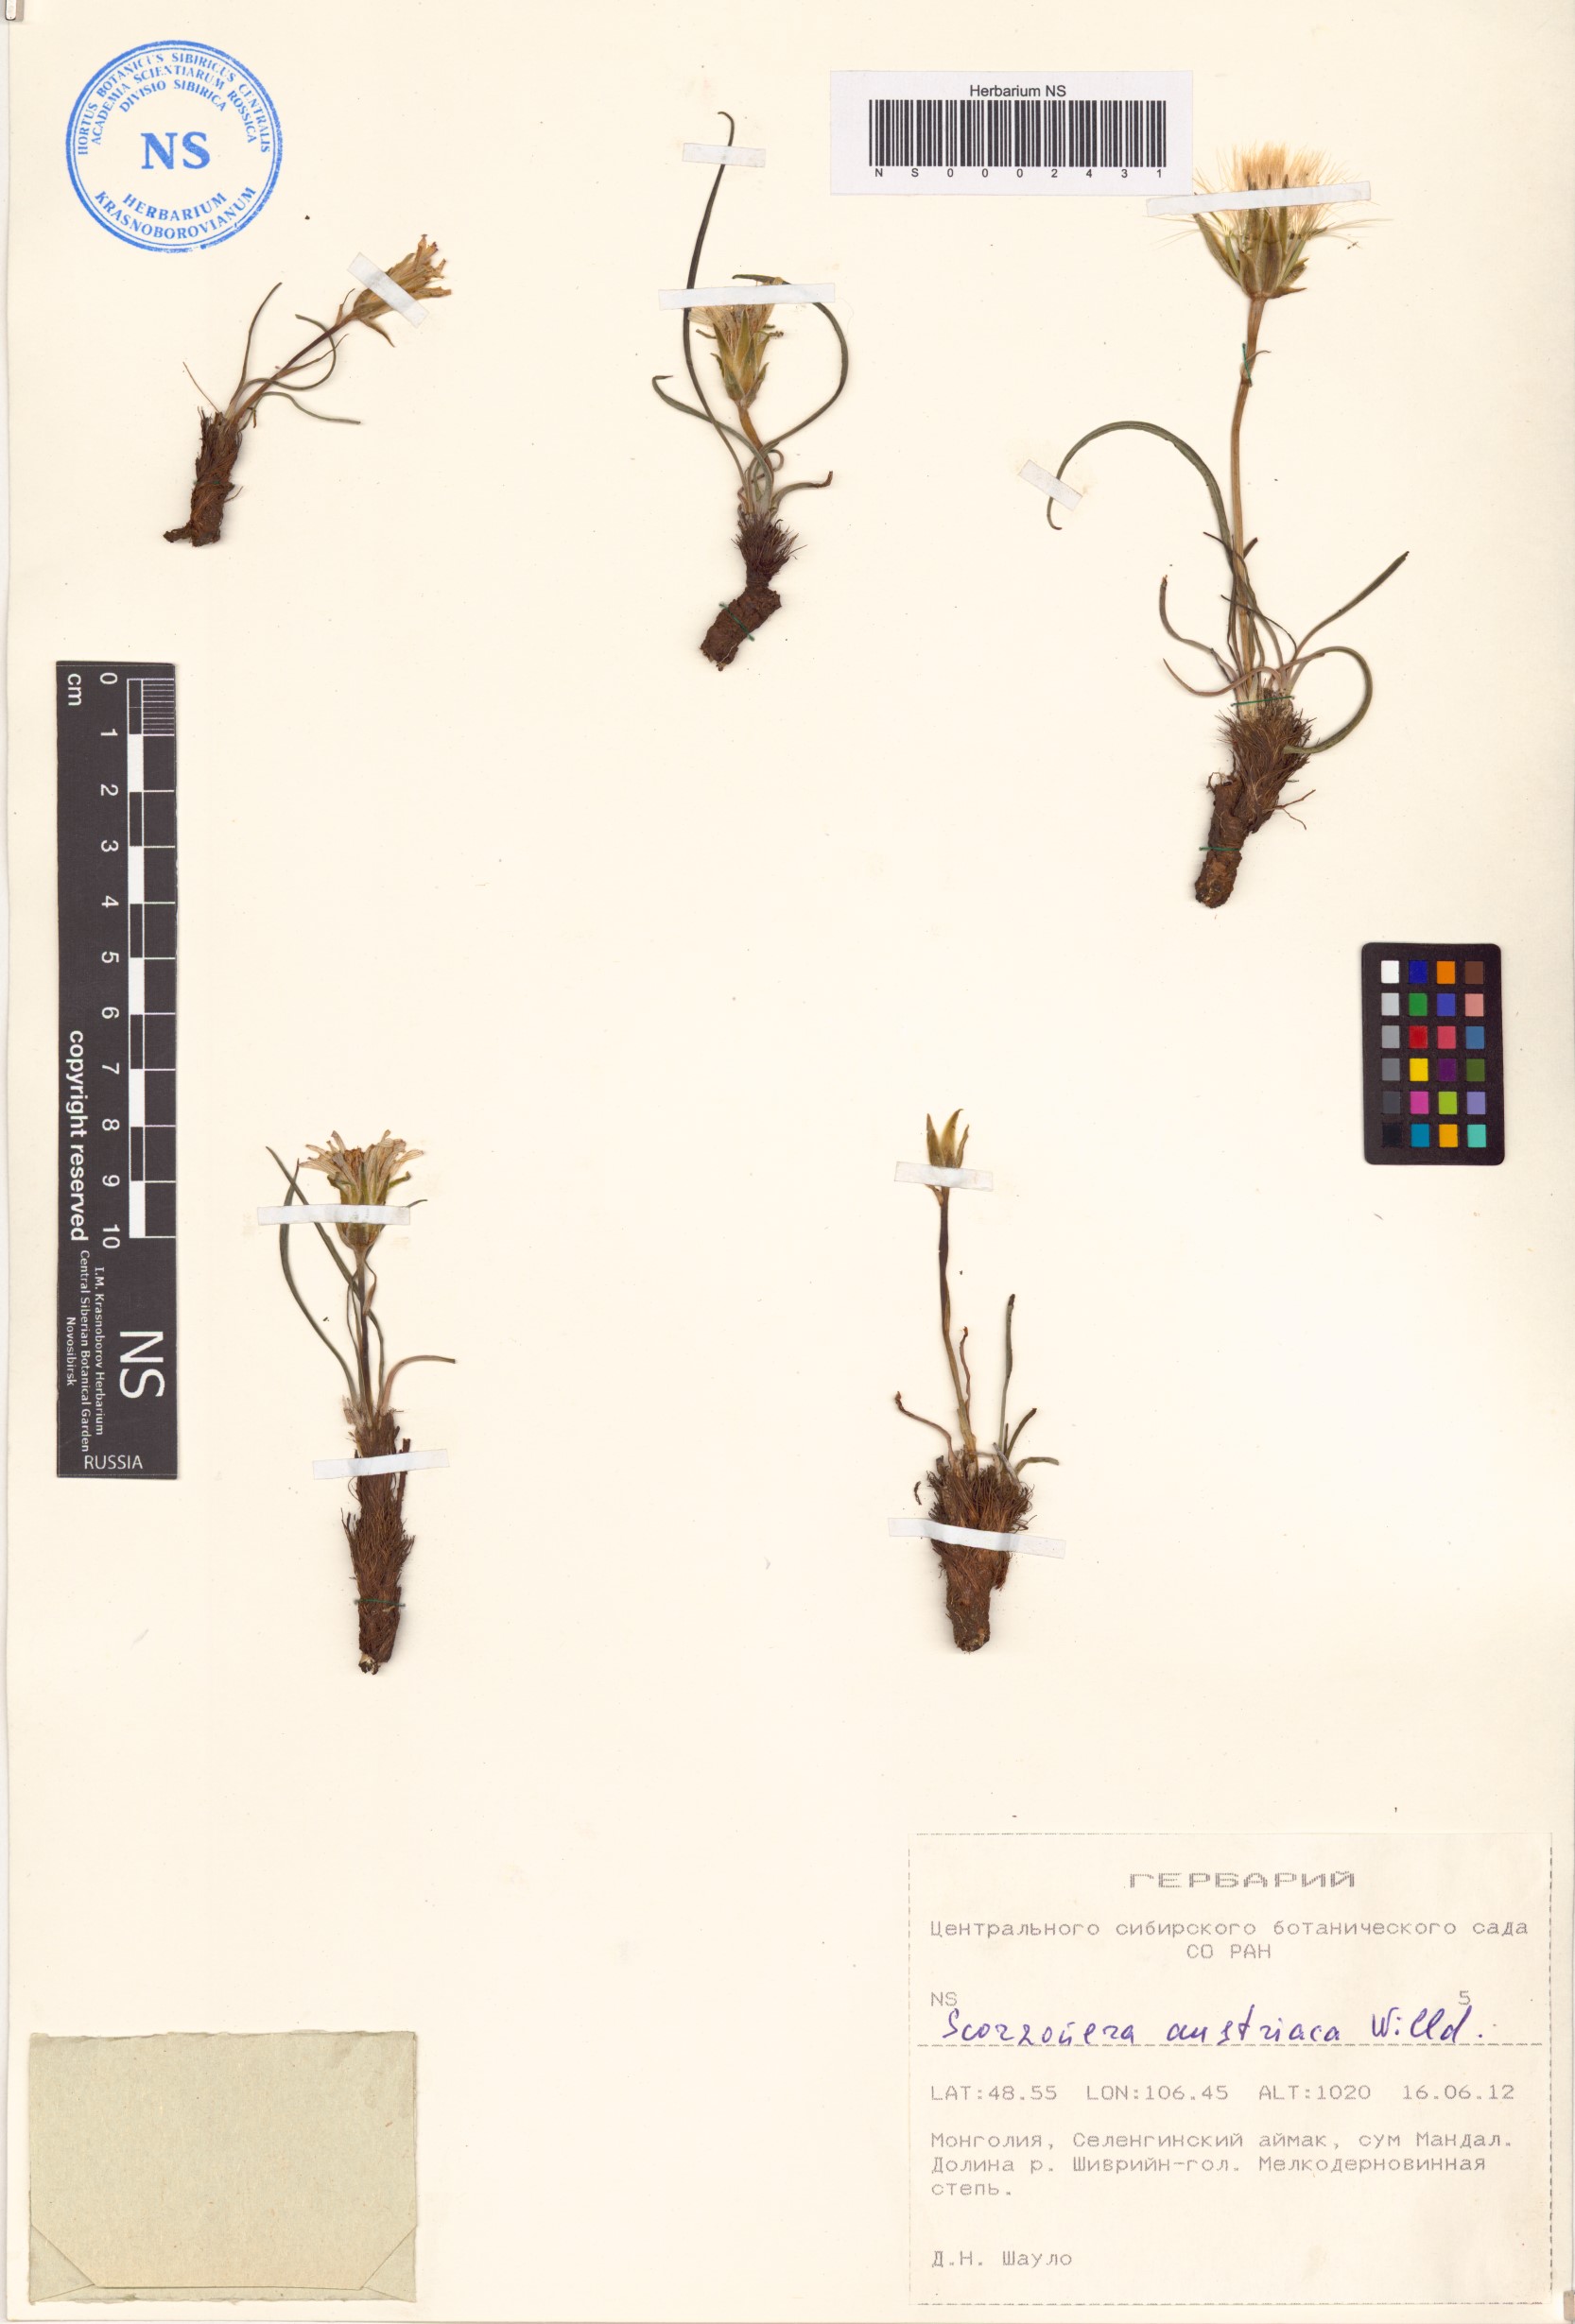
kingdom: Plantae
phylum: Tracheophyta
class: Magnoliopsida
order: Asterales
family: Asteraceae
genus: Takhtajaniantha
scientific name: Takhtajaniantha austriaca
